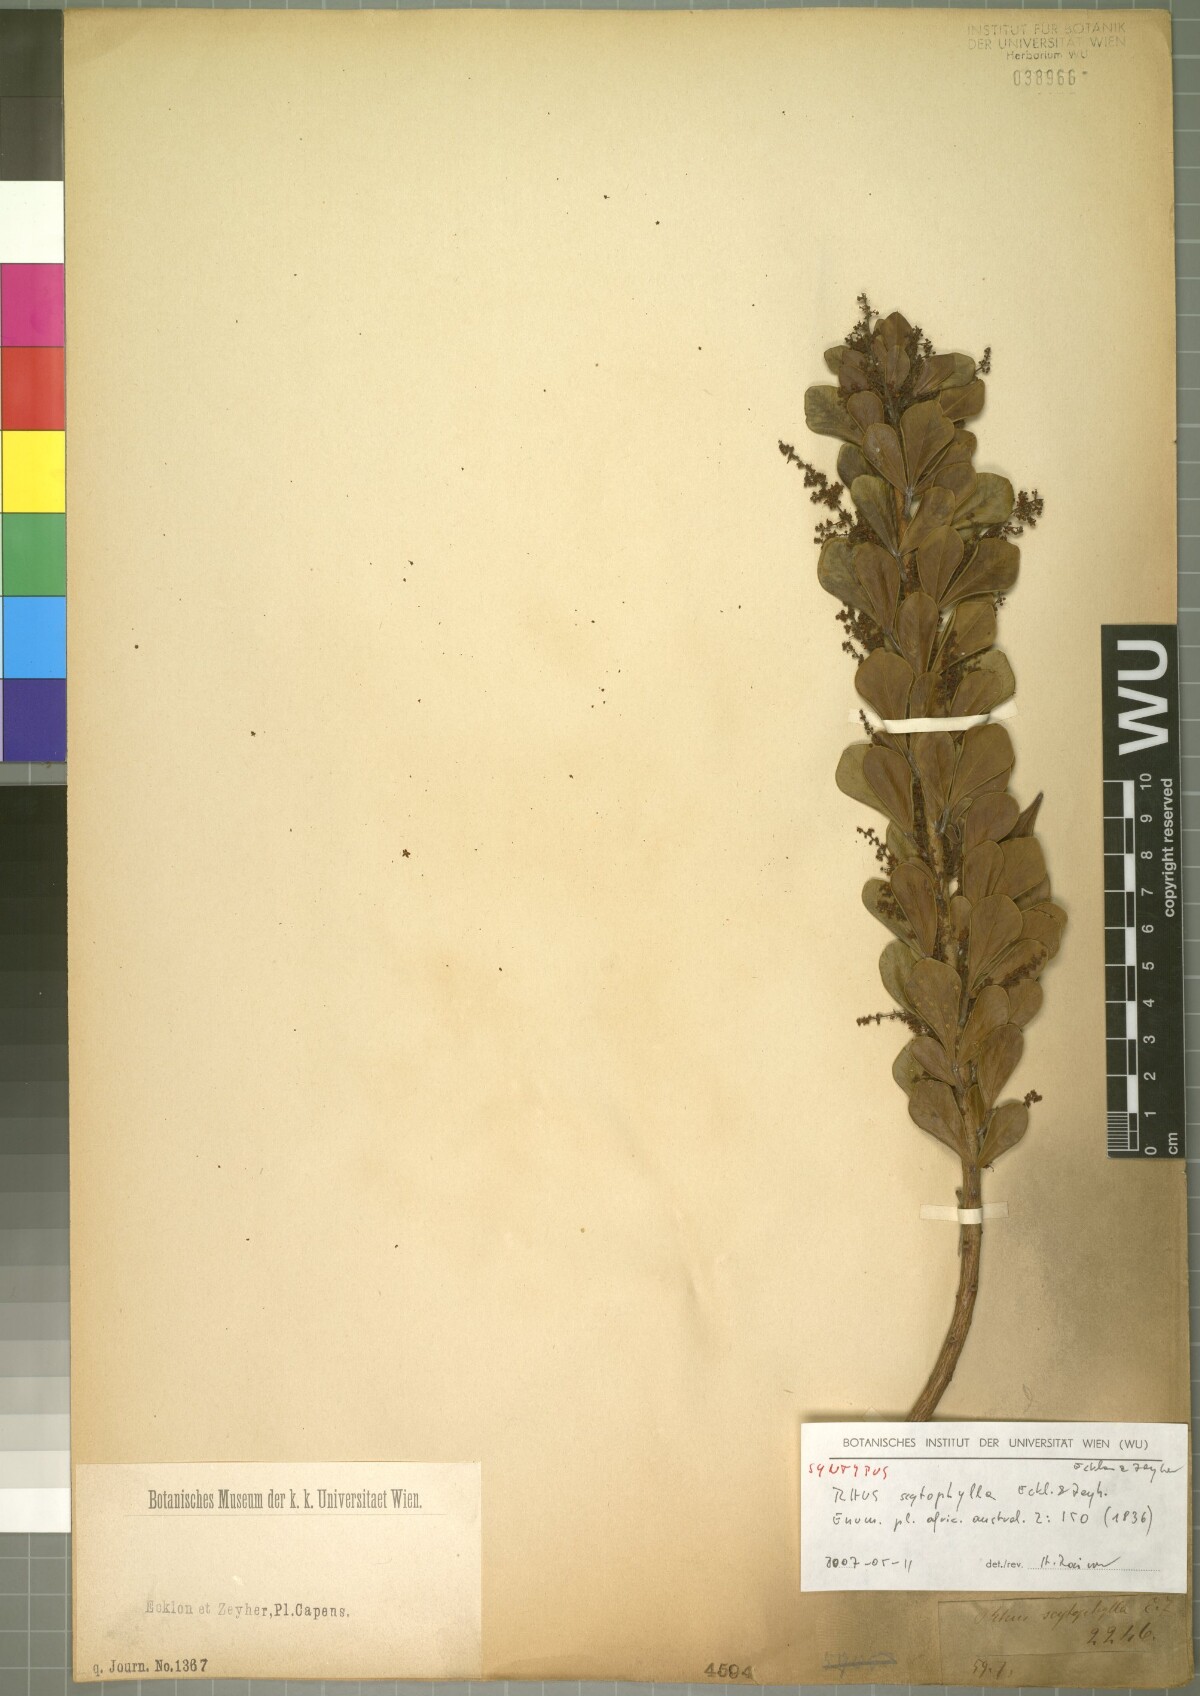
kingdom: Plantae
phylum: Tracheophyta
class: Magnoliopsida
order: Sapindales
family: Anacardiaceae
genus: Searsia
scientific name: Searsia scytophylla
